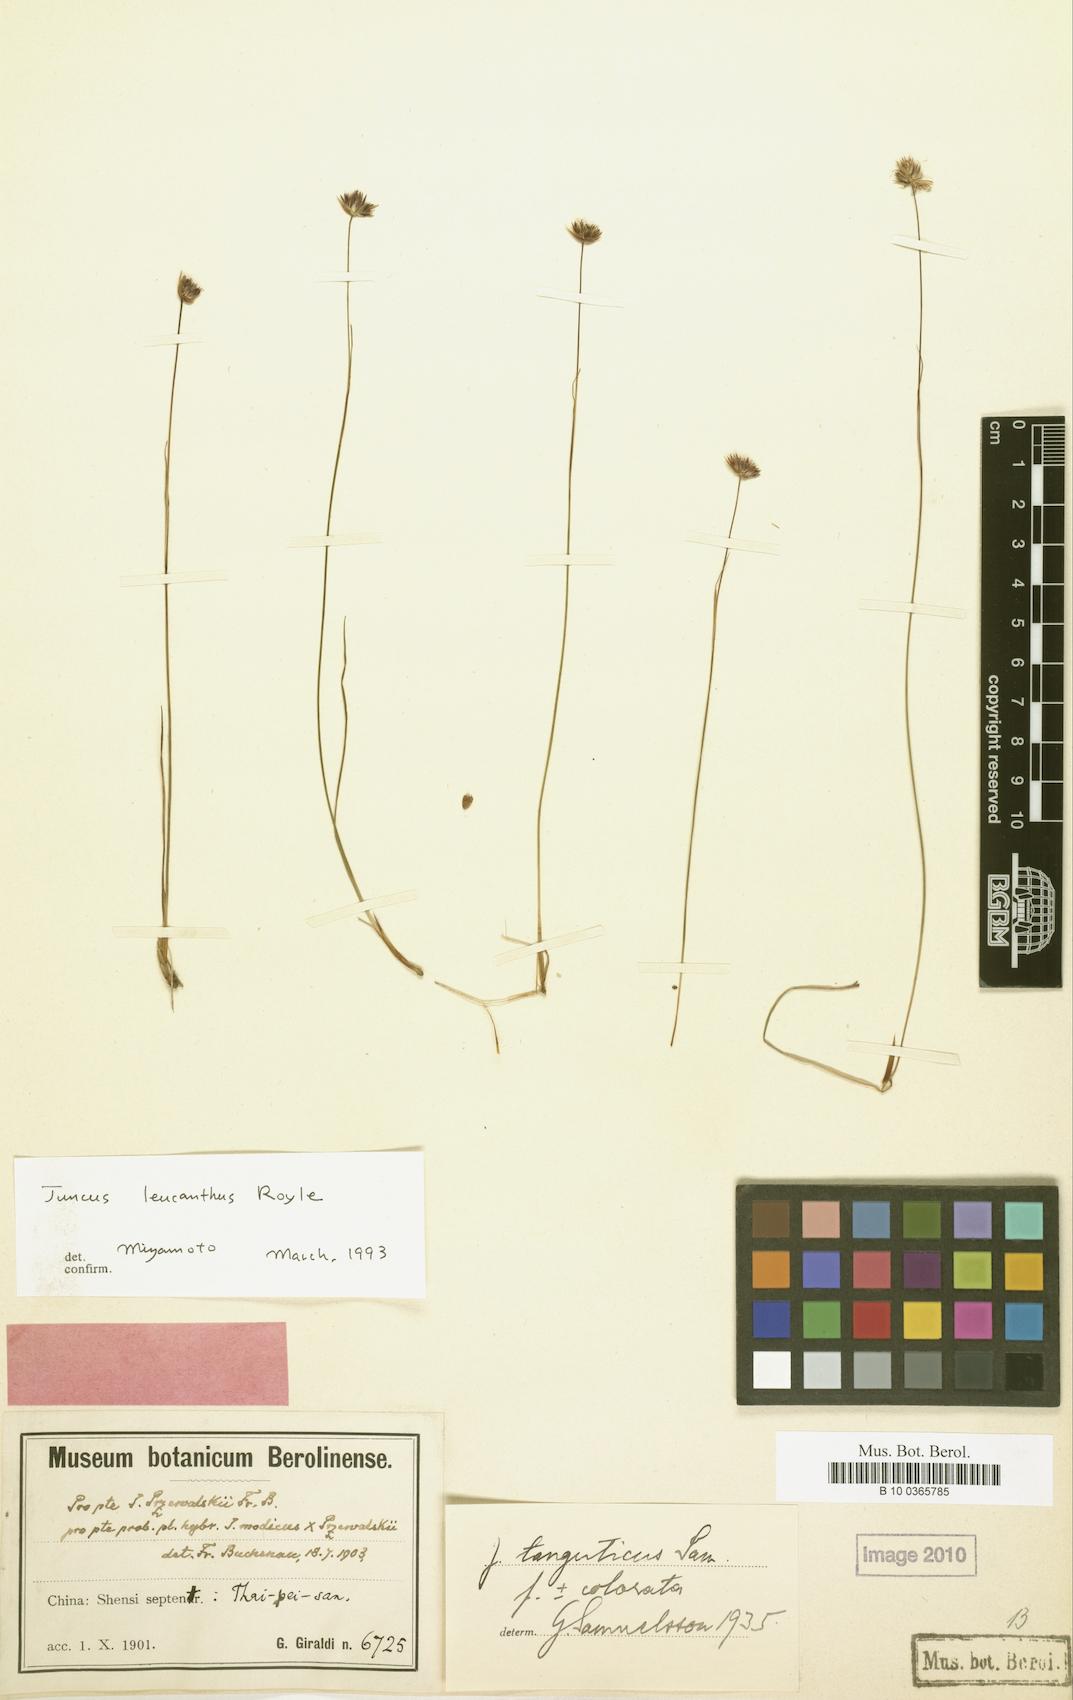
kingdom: Plantae
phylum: Tracheophyta
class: Liliopsida
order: Poales
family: Juncaceae
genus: Juncus
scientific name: Juncus leucanthus
